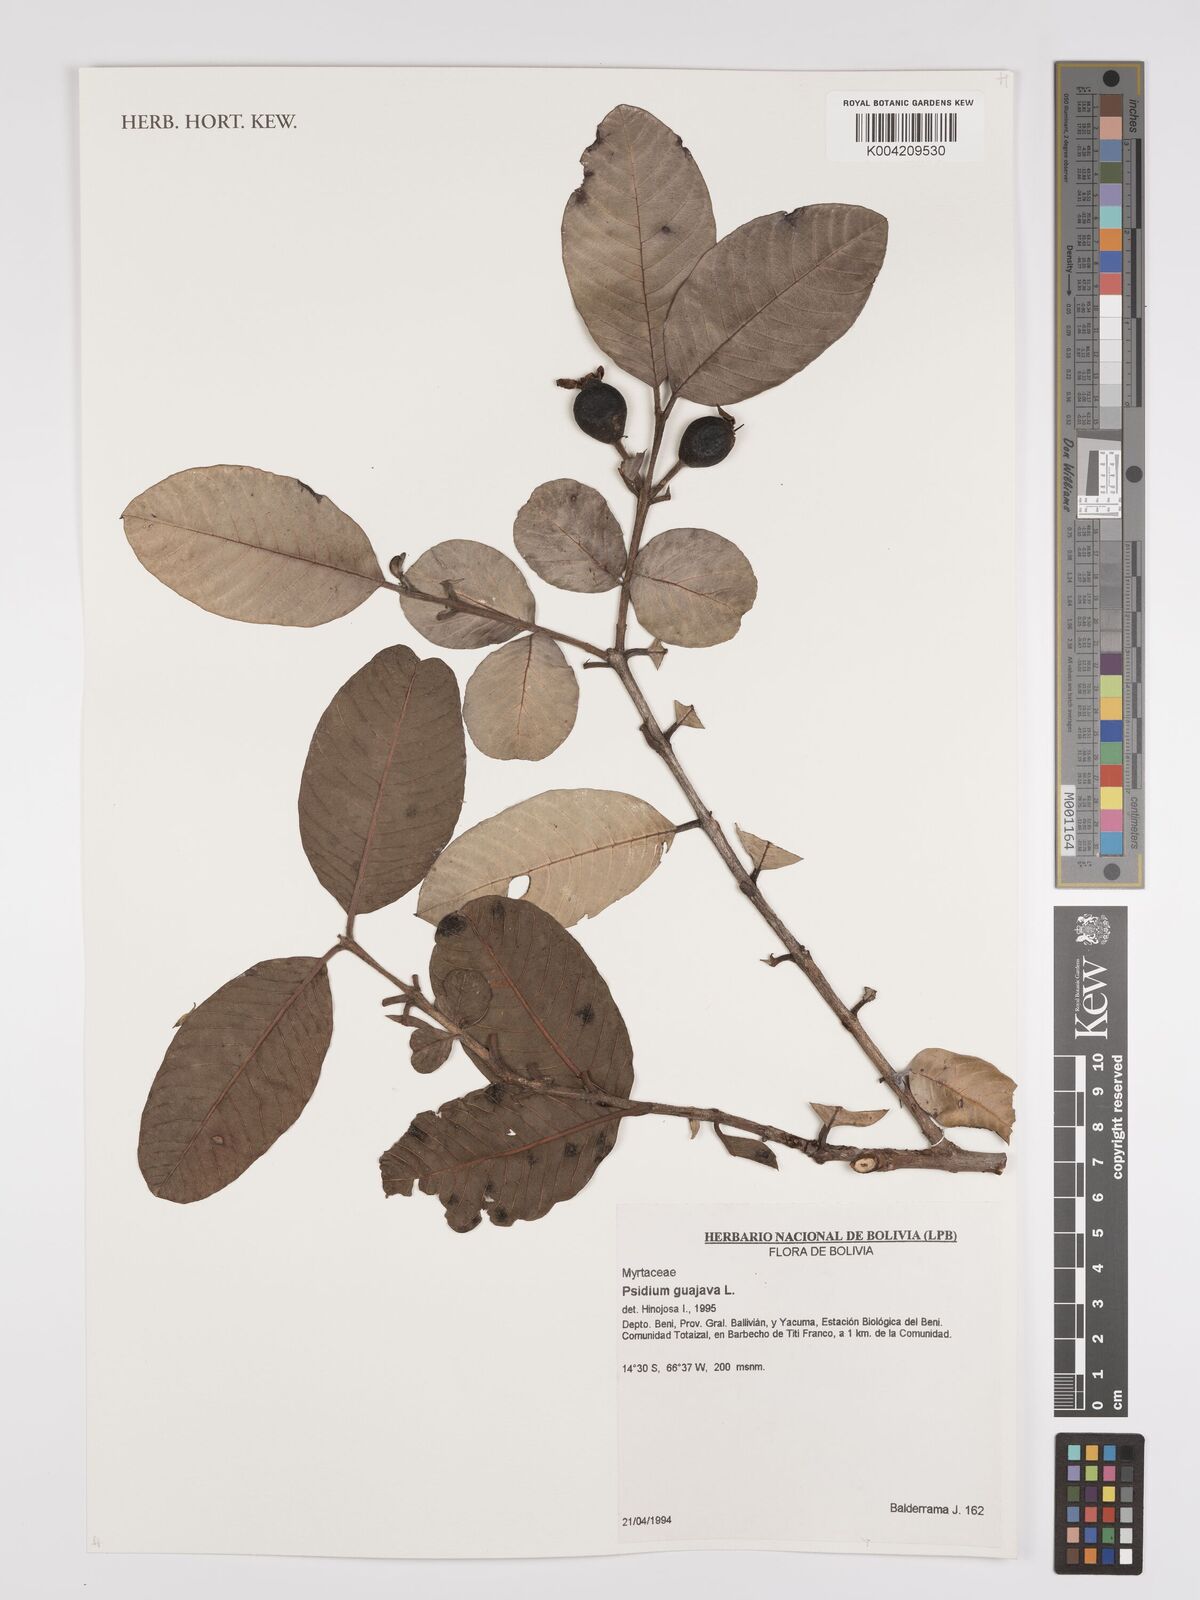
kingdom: Plantae
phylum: Tracheophyta
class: Magnoliopsida
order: Myrtales
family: Myrtaceae
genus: Psidium
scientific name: Psidium guajava
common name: Guava
